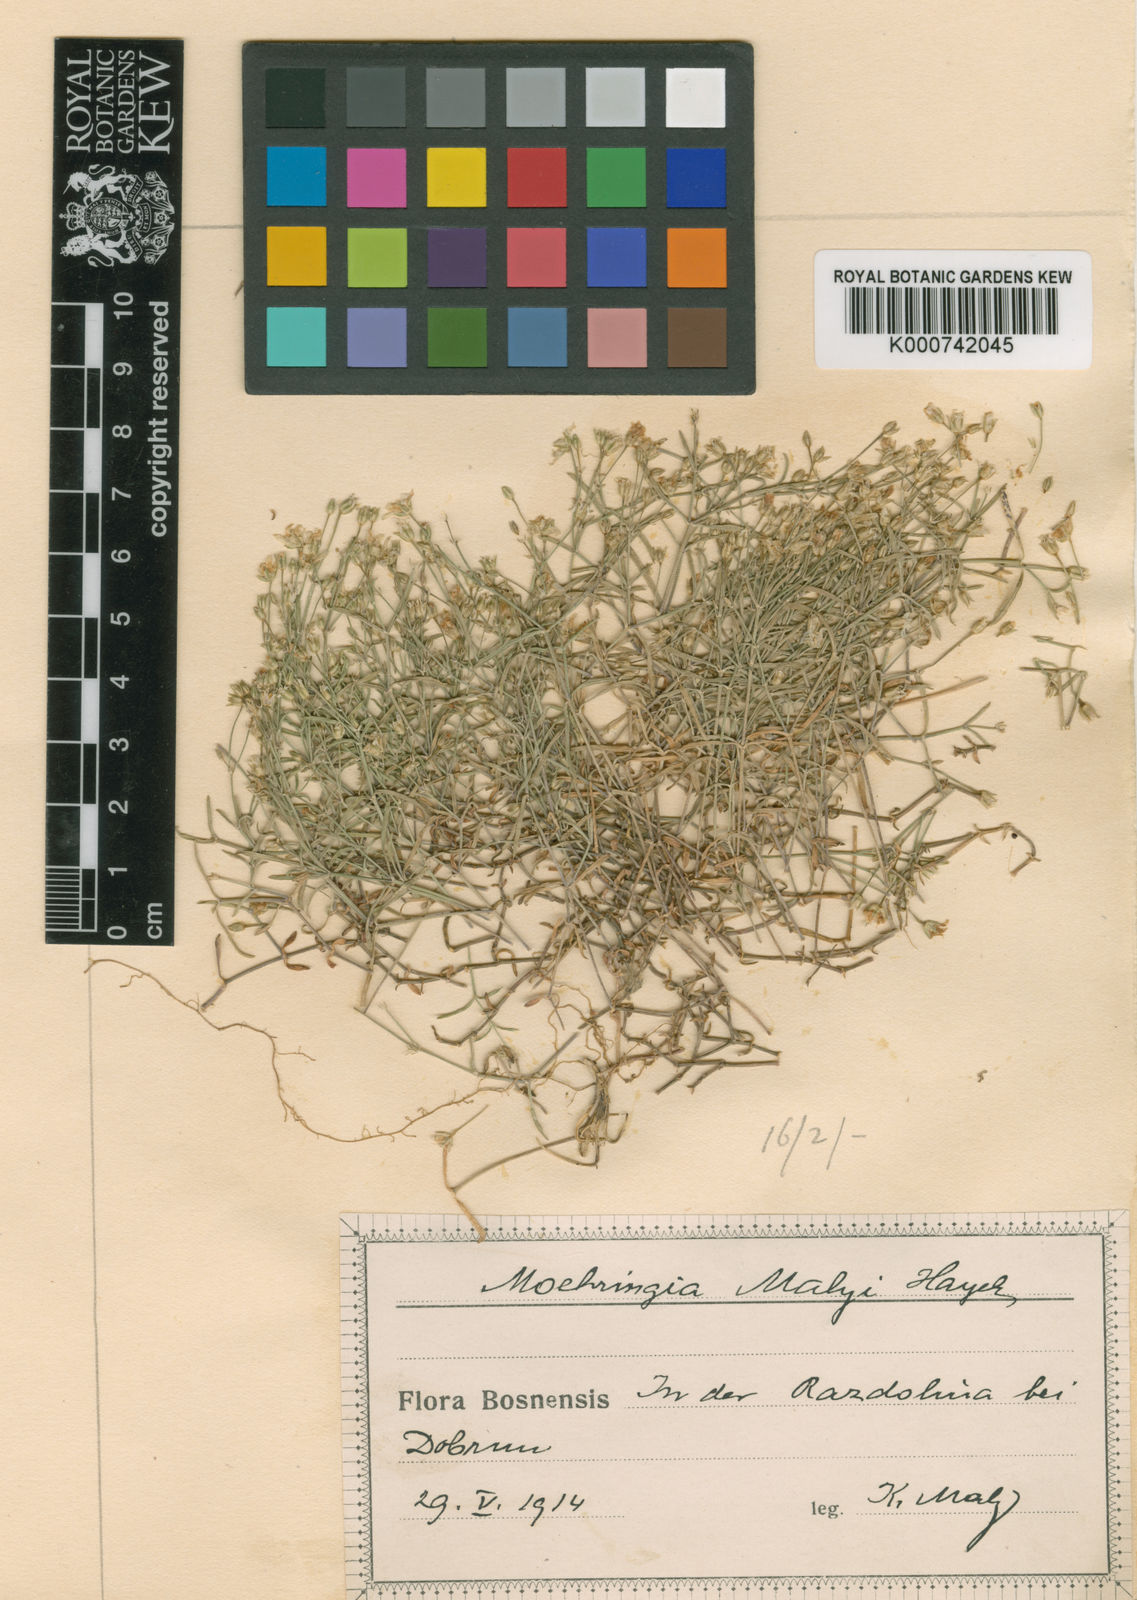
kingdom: Plantae
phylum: Tracheophyta
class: Magnoliopsida
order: Caryophyllales
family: Caryophyllaceae
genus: Moehringia
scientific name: Moehringia
